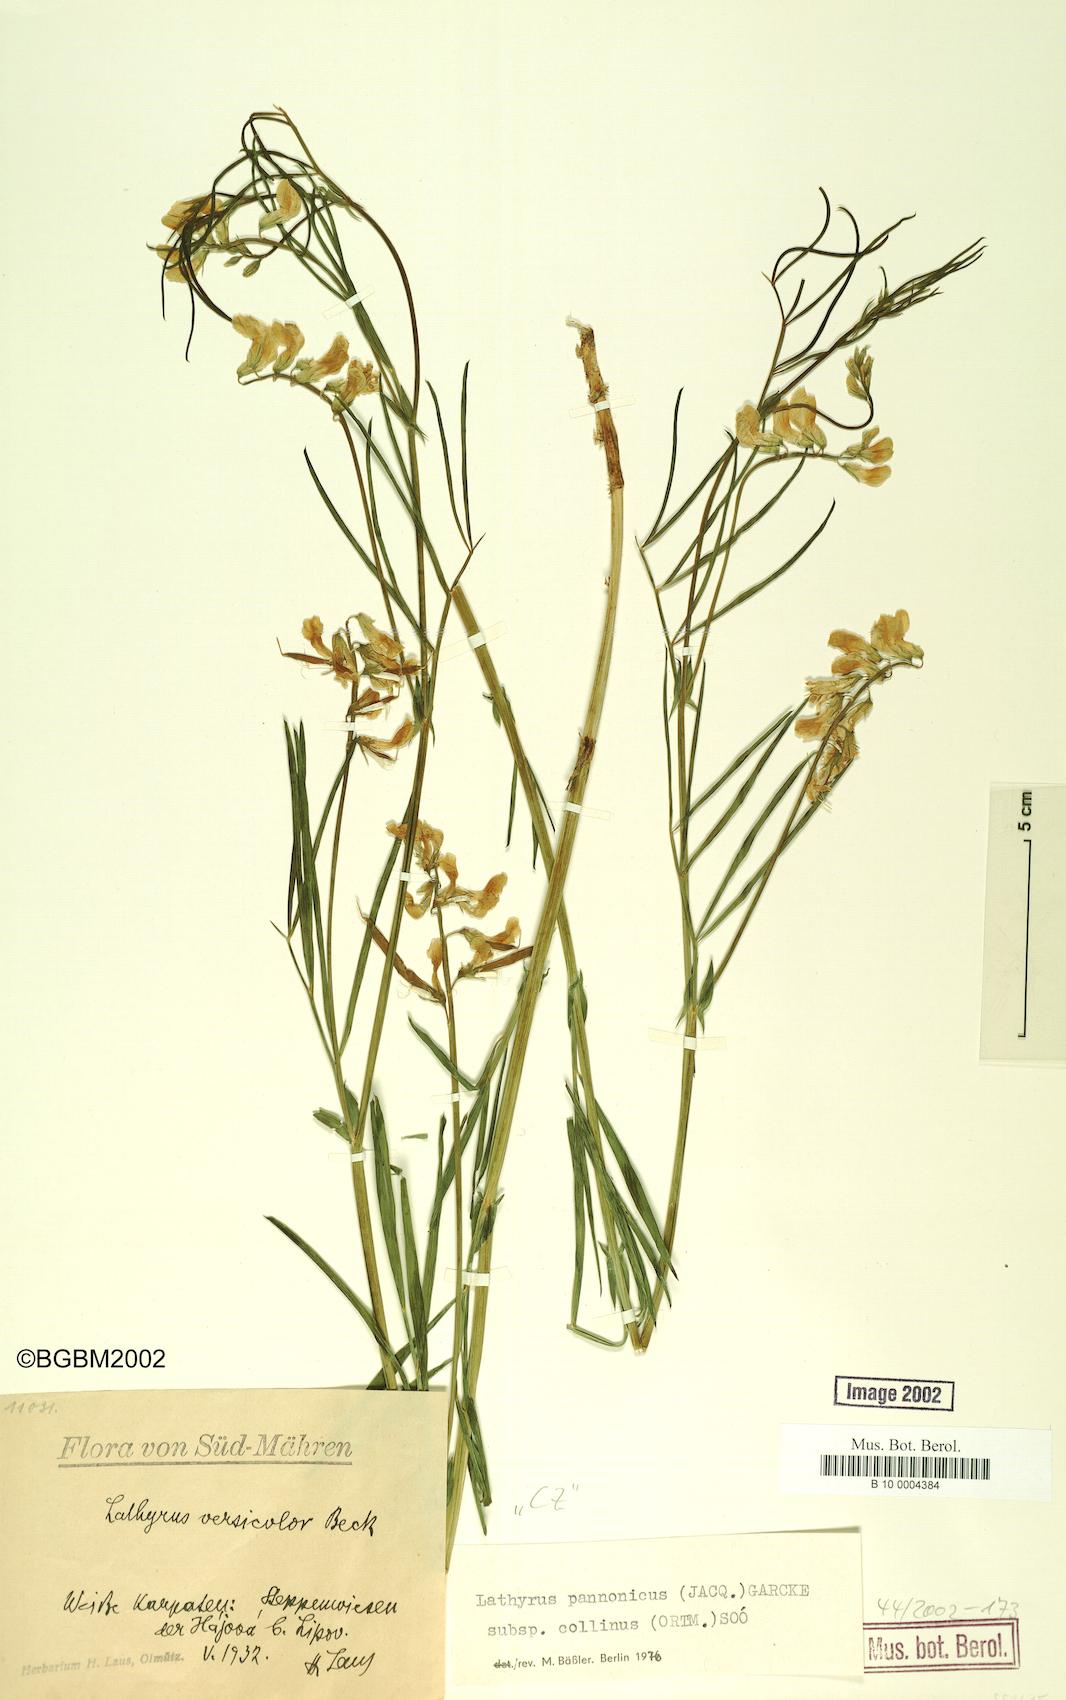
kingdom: Plantae
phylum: Tracheophyta
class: Magnoliopsida
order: Fabales
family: Fabaceae
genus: Lathyrus
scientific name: Lathyrus pannonicus
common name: Pea
